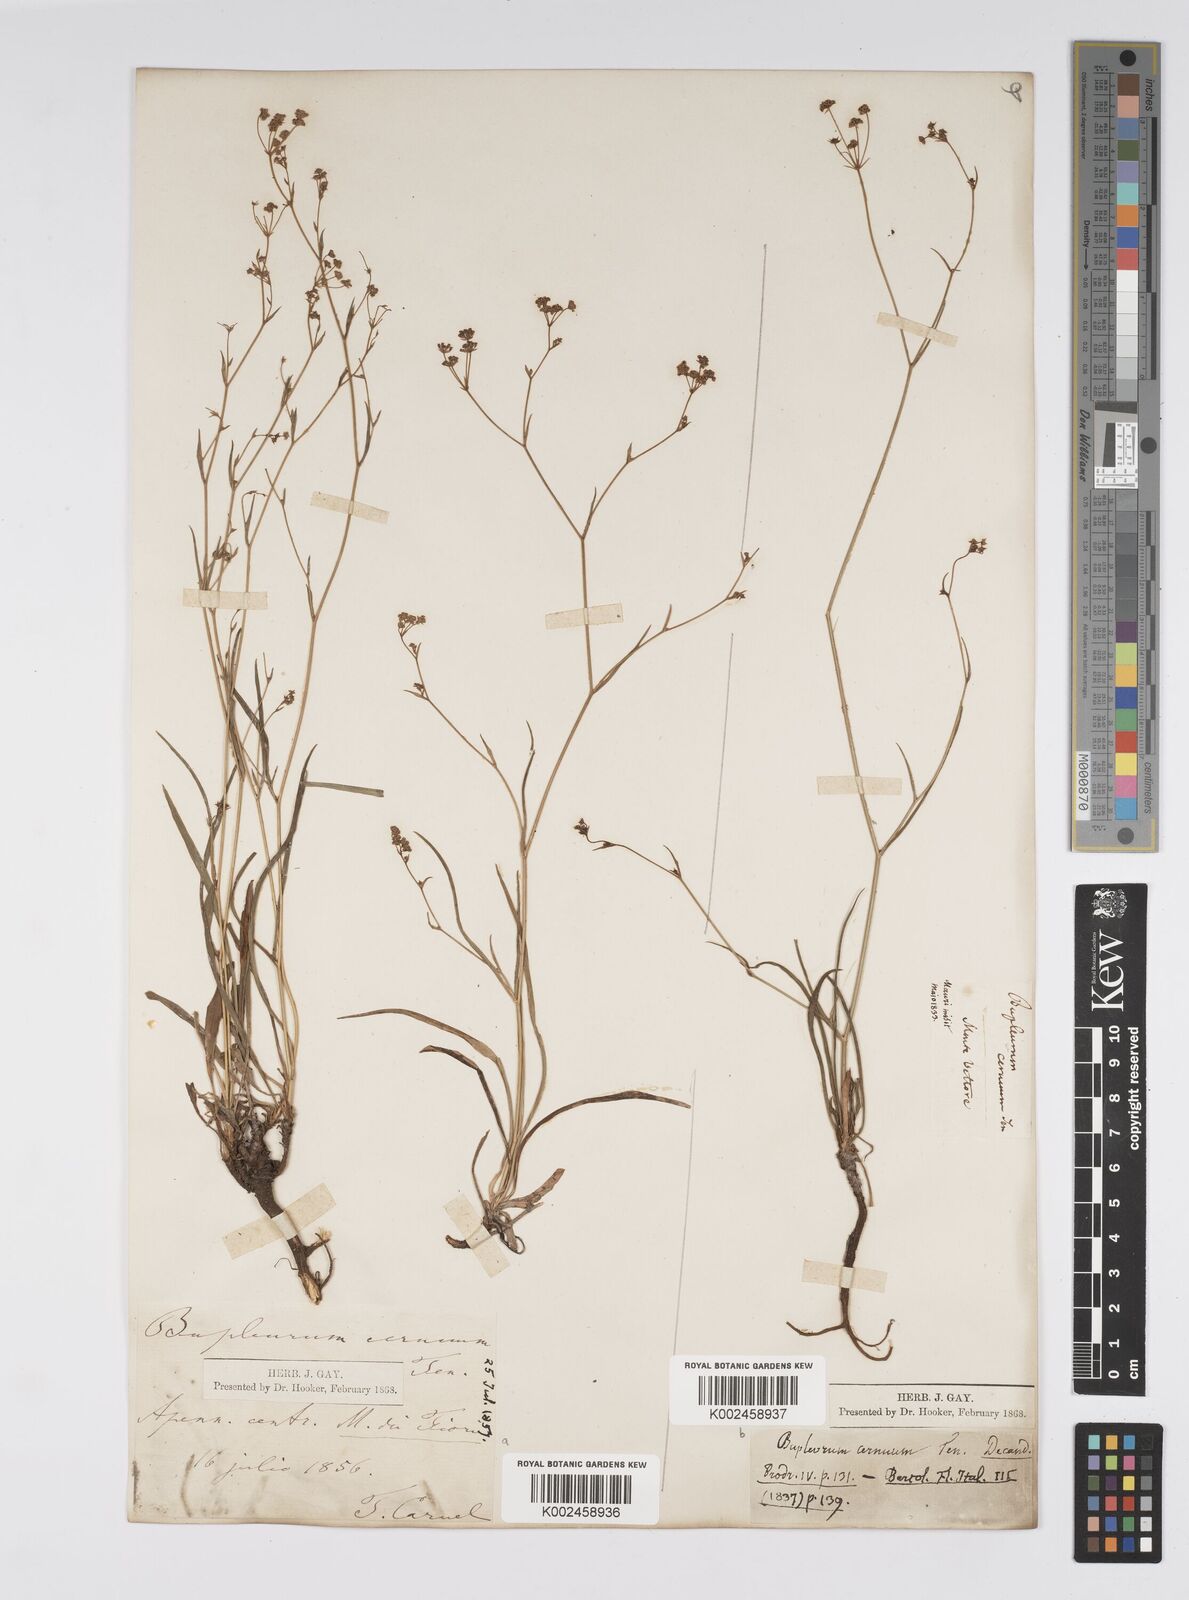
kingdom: Plantae
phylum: Tracheophyta
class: Magnoliopsida
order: Apiales
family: Apiaceae
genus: Bupleurum
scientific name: Bupleurum falcatum
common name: Sickle-leaved hare's-ear
